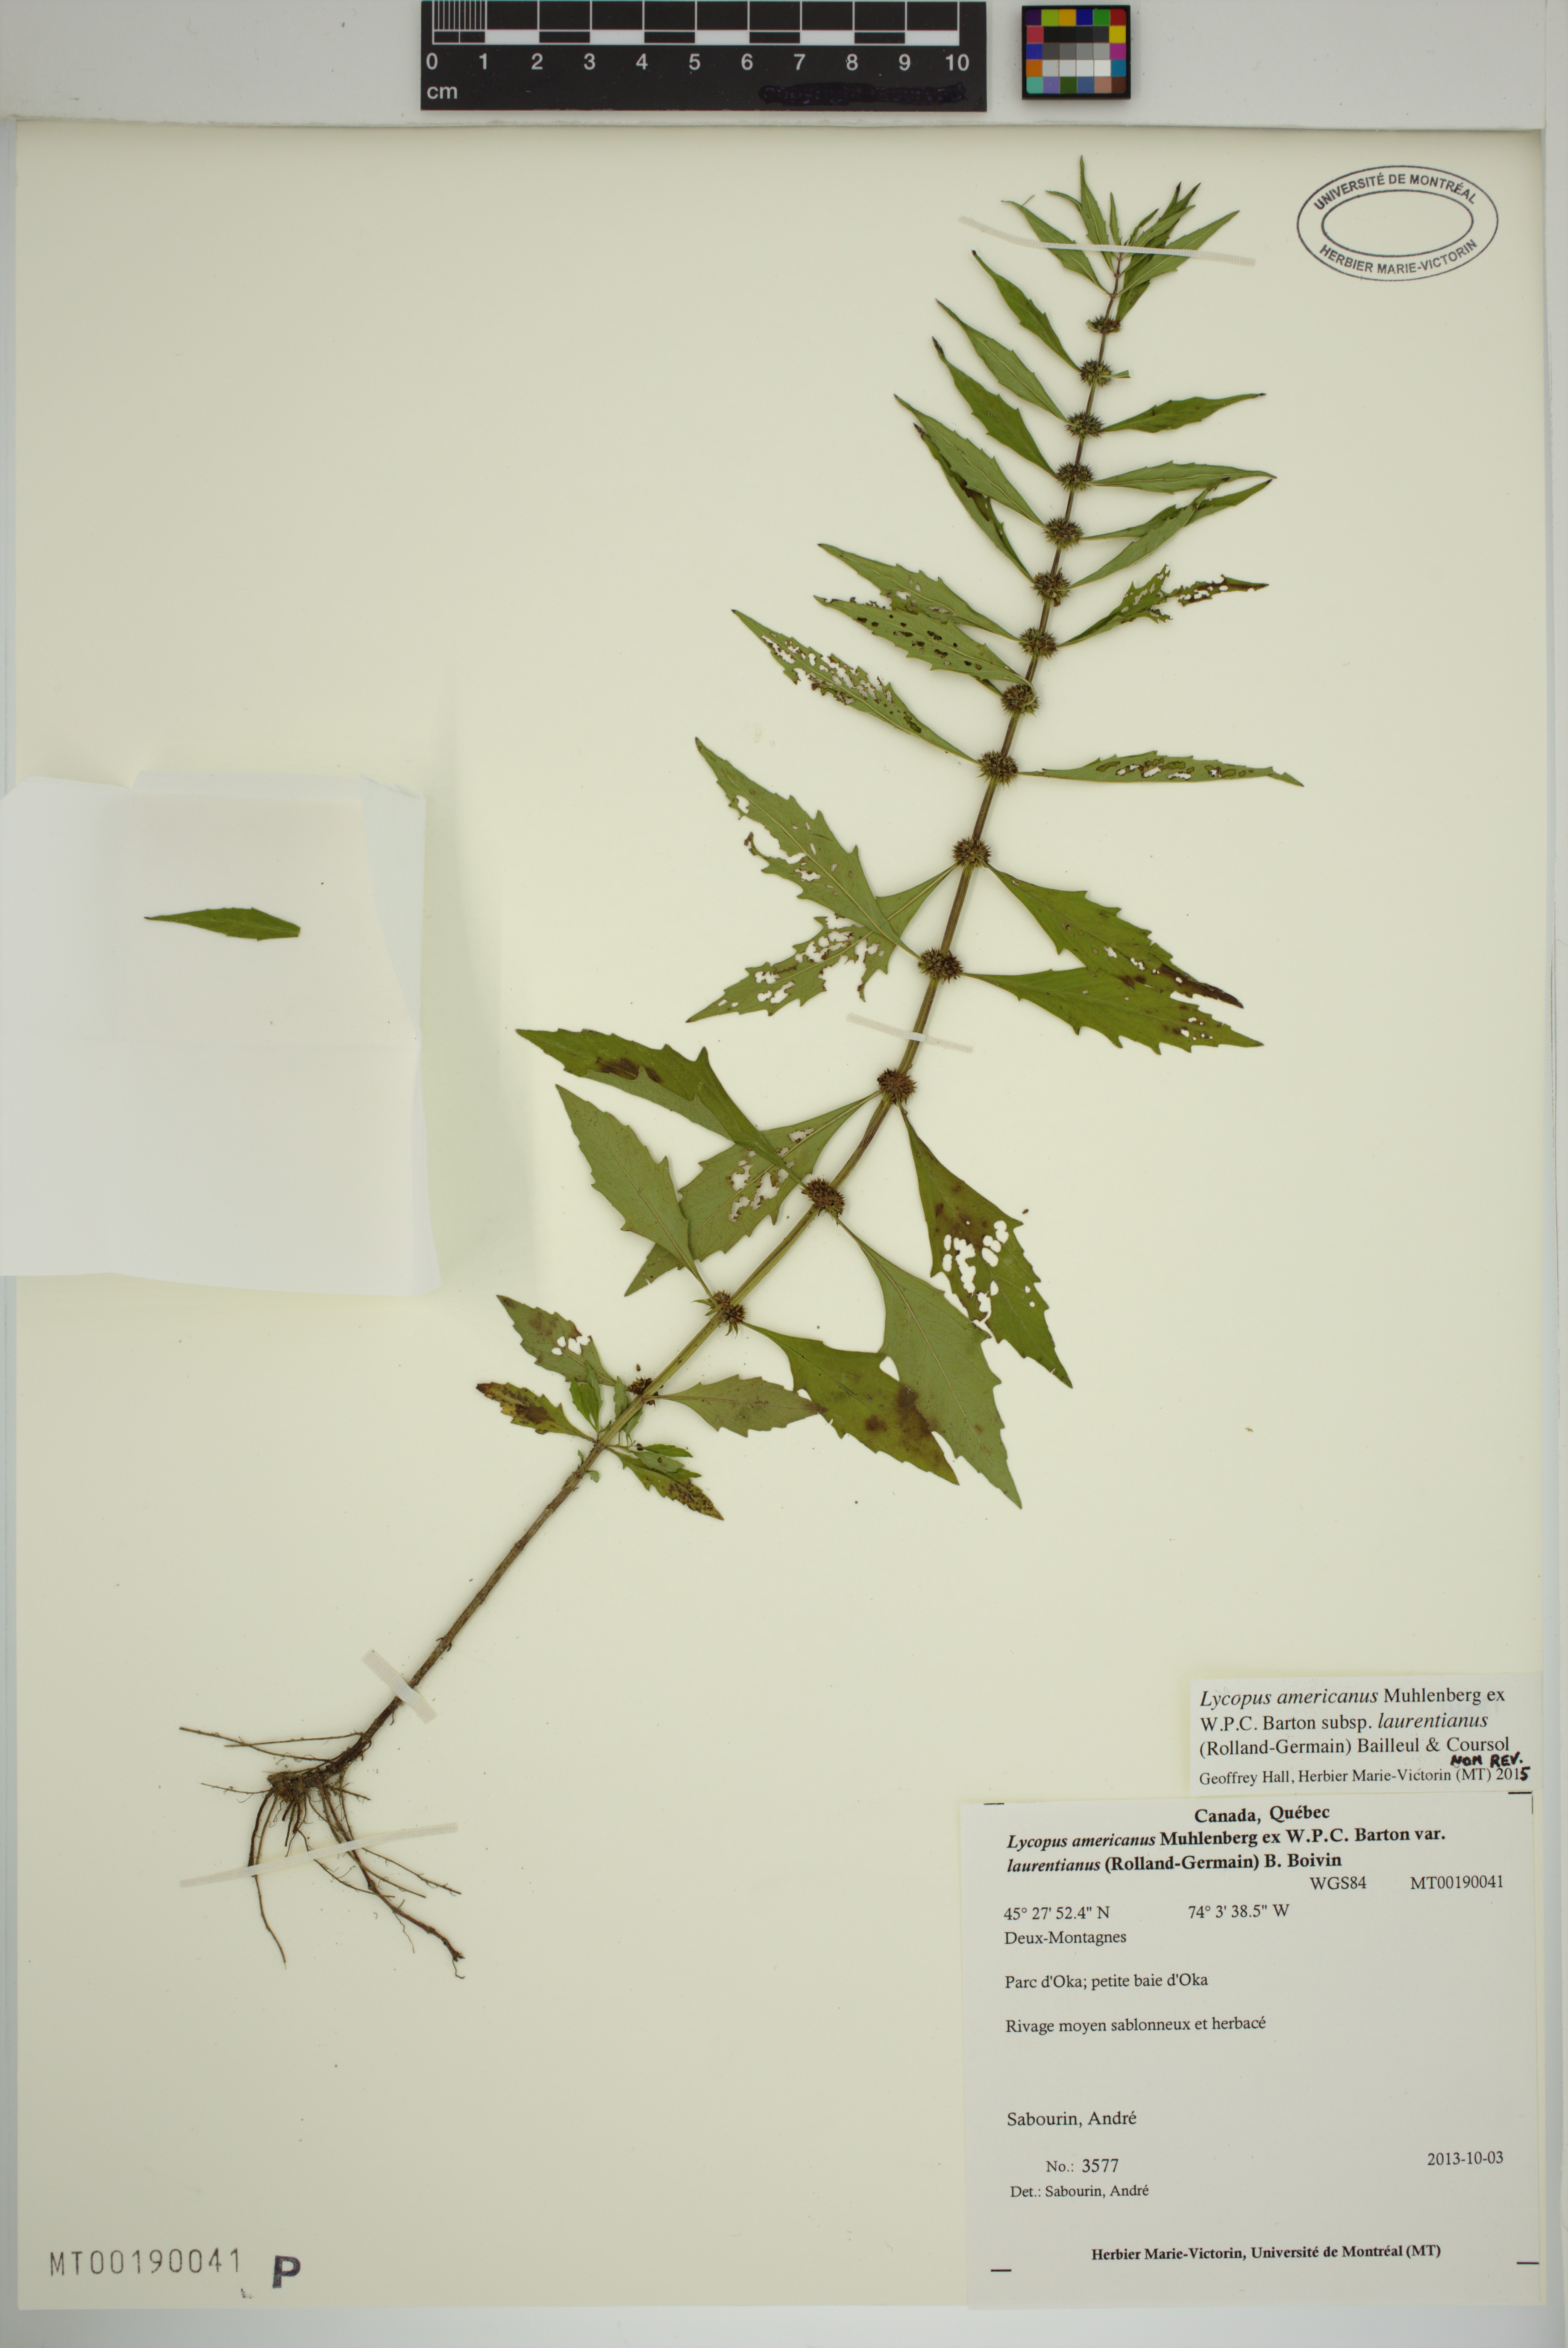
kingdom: Plantae
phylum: Tracheophyta
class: Magnoliopsida
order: Lamiales
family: Lamiaceae
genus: Lycopus
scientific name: Lycopus americanus
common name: American bugleweed
